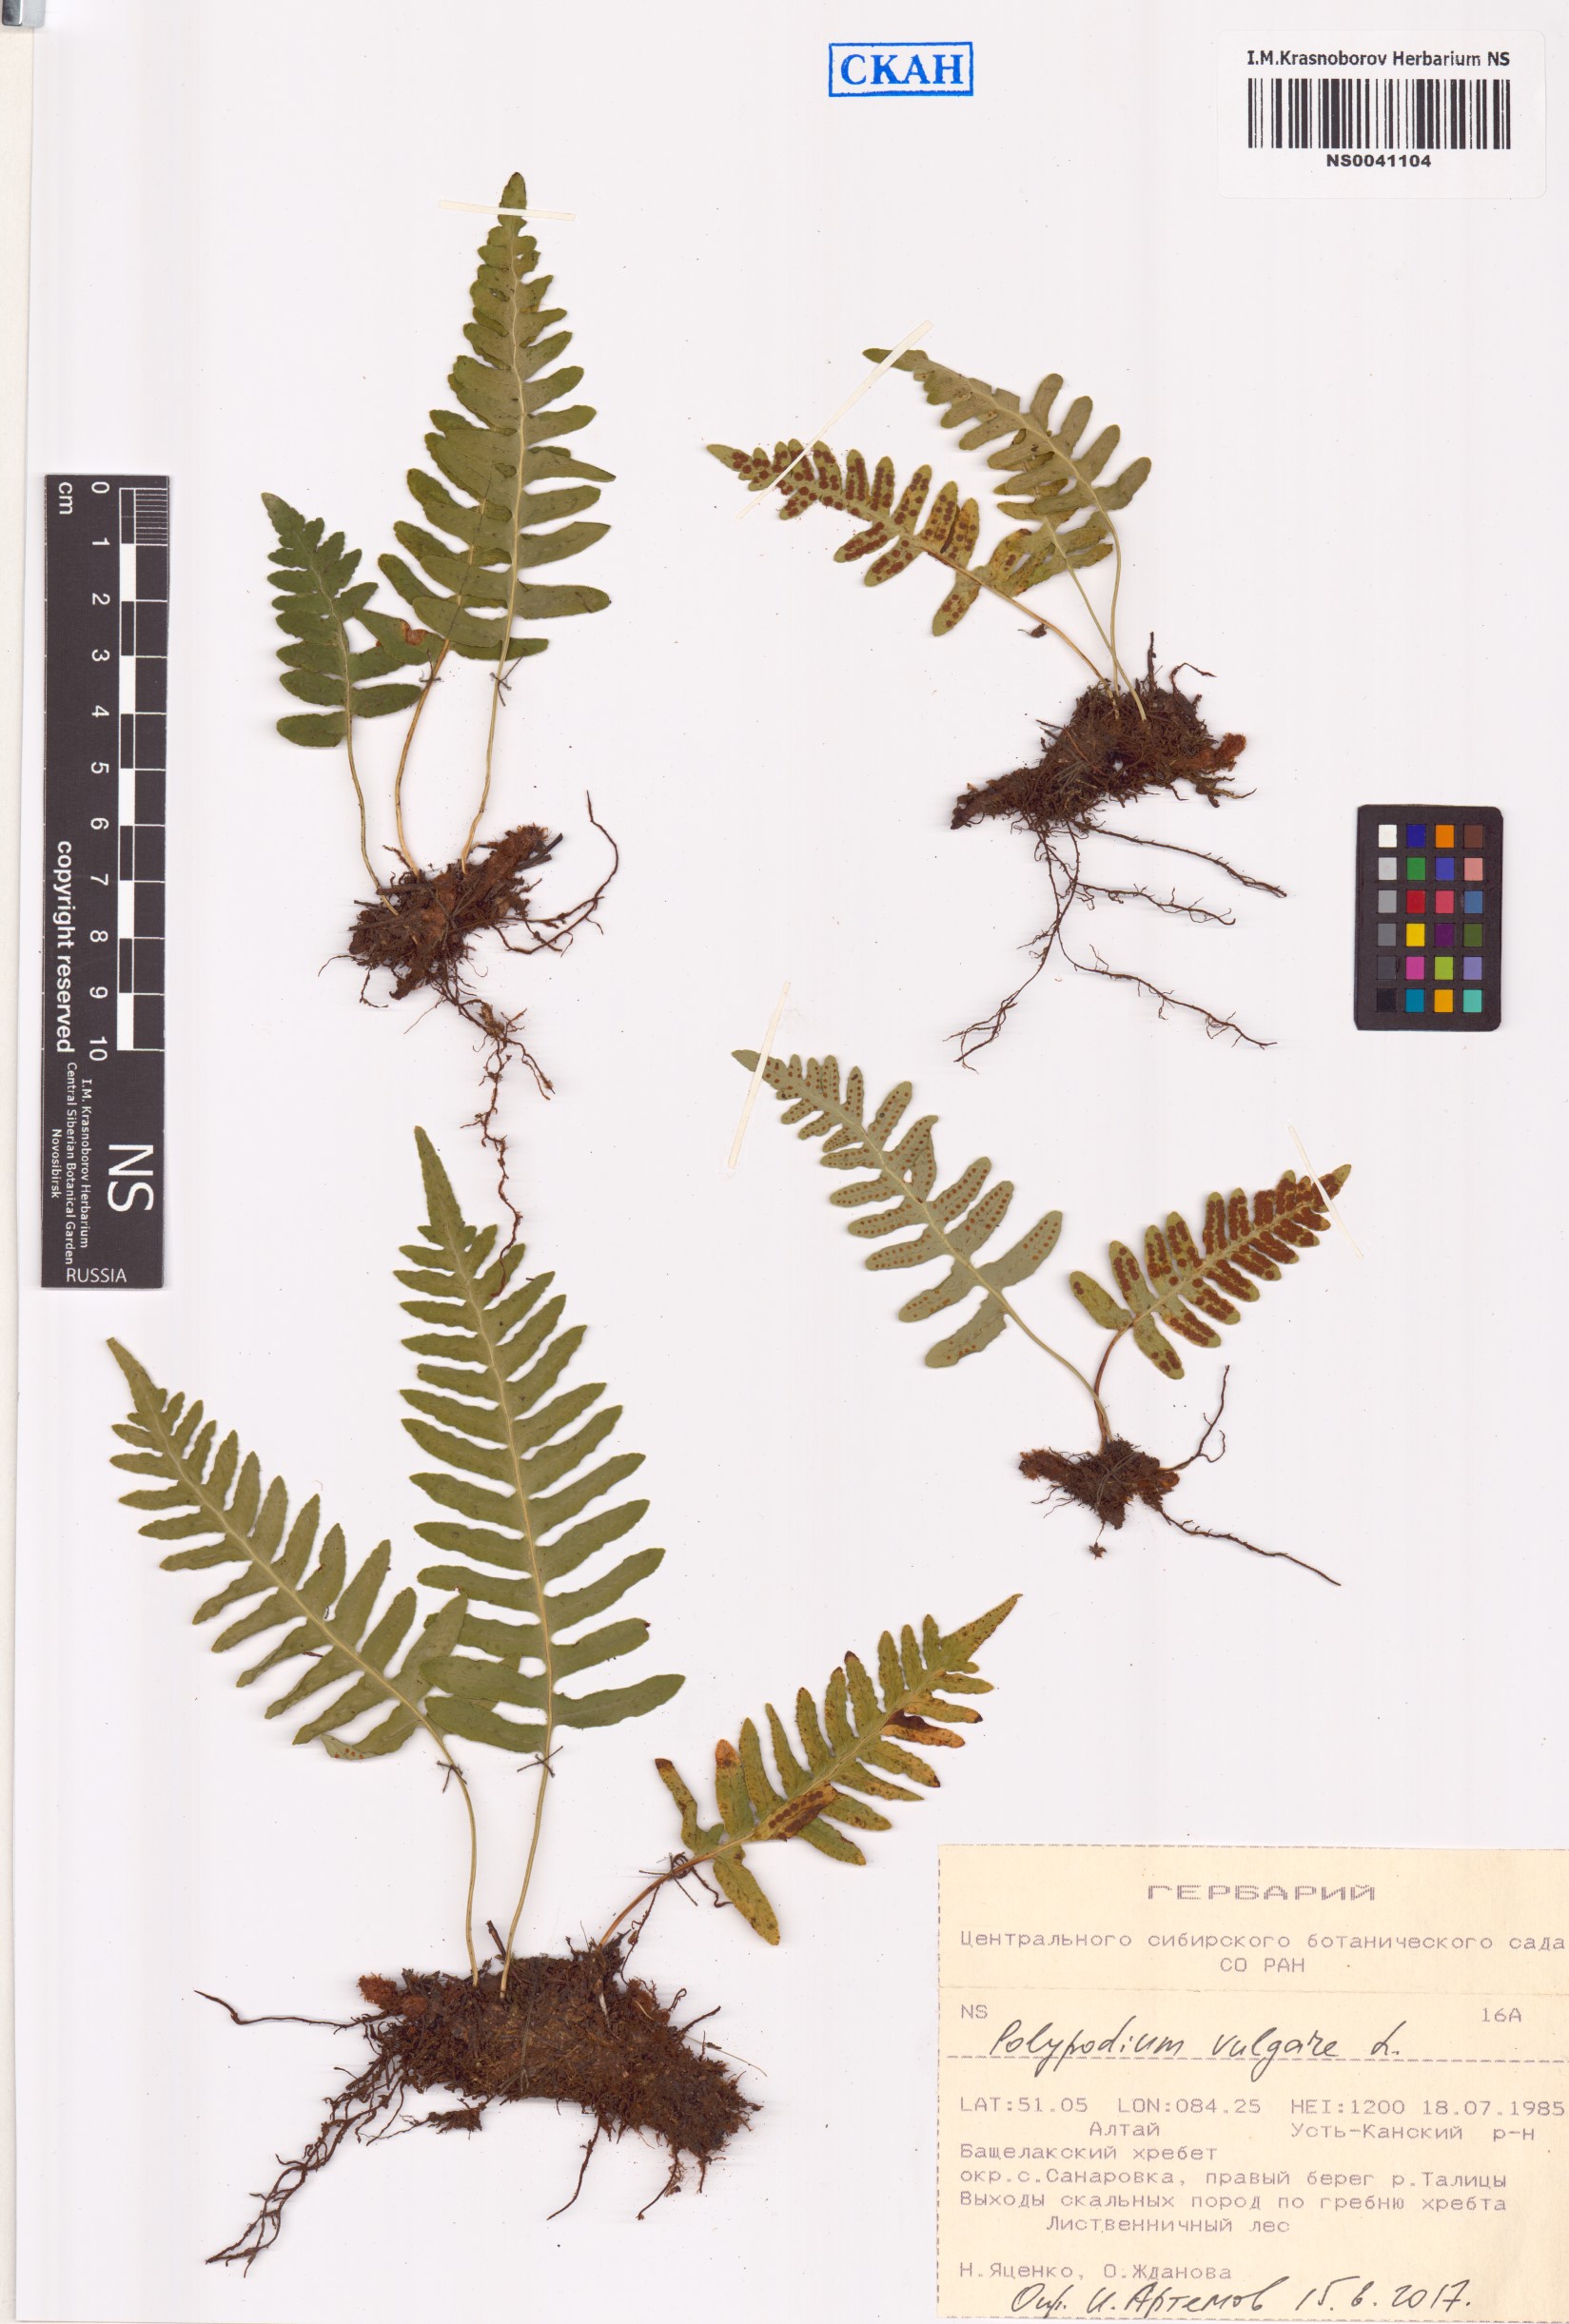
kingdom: Plantae
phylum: Tracheophyta
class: Polypodiopsida
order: Polypodiales
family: Polypodiaceae
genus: Polypodium
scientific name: Polypodium vulgare
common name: Common polypody
